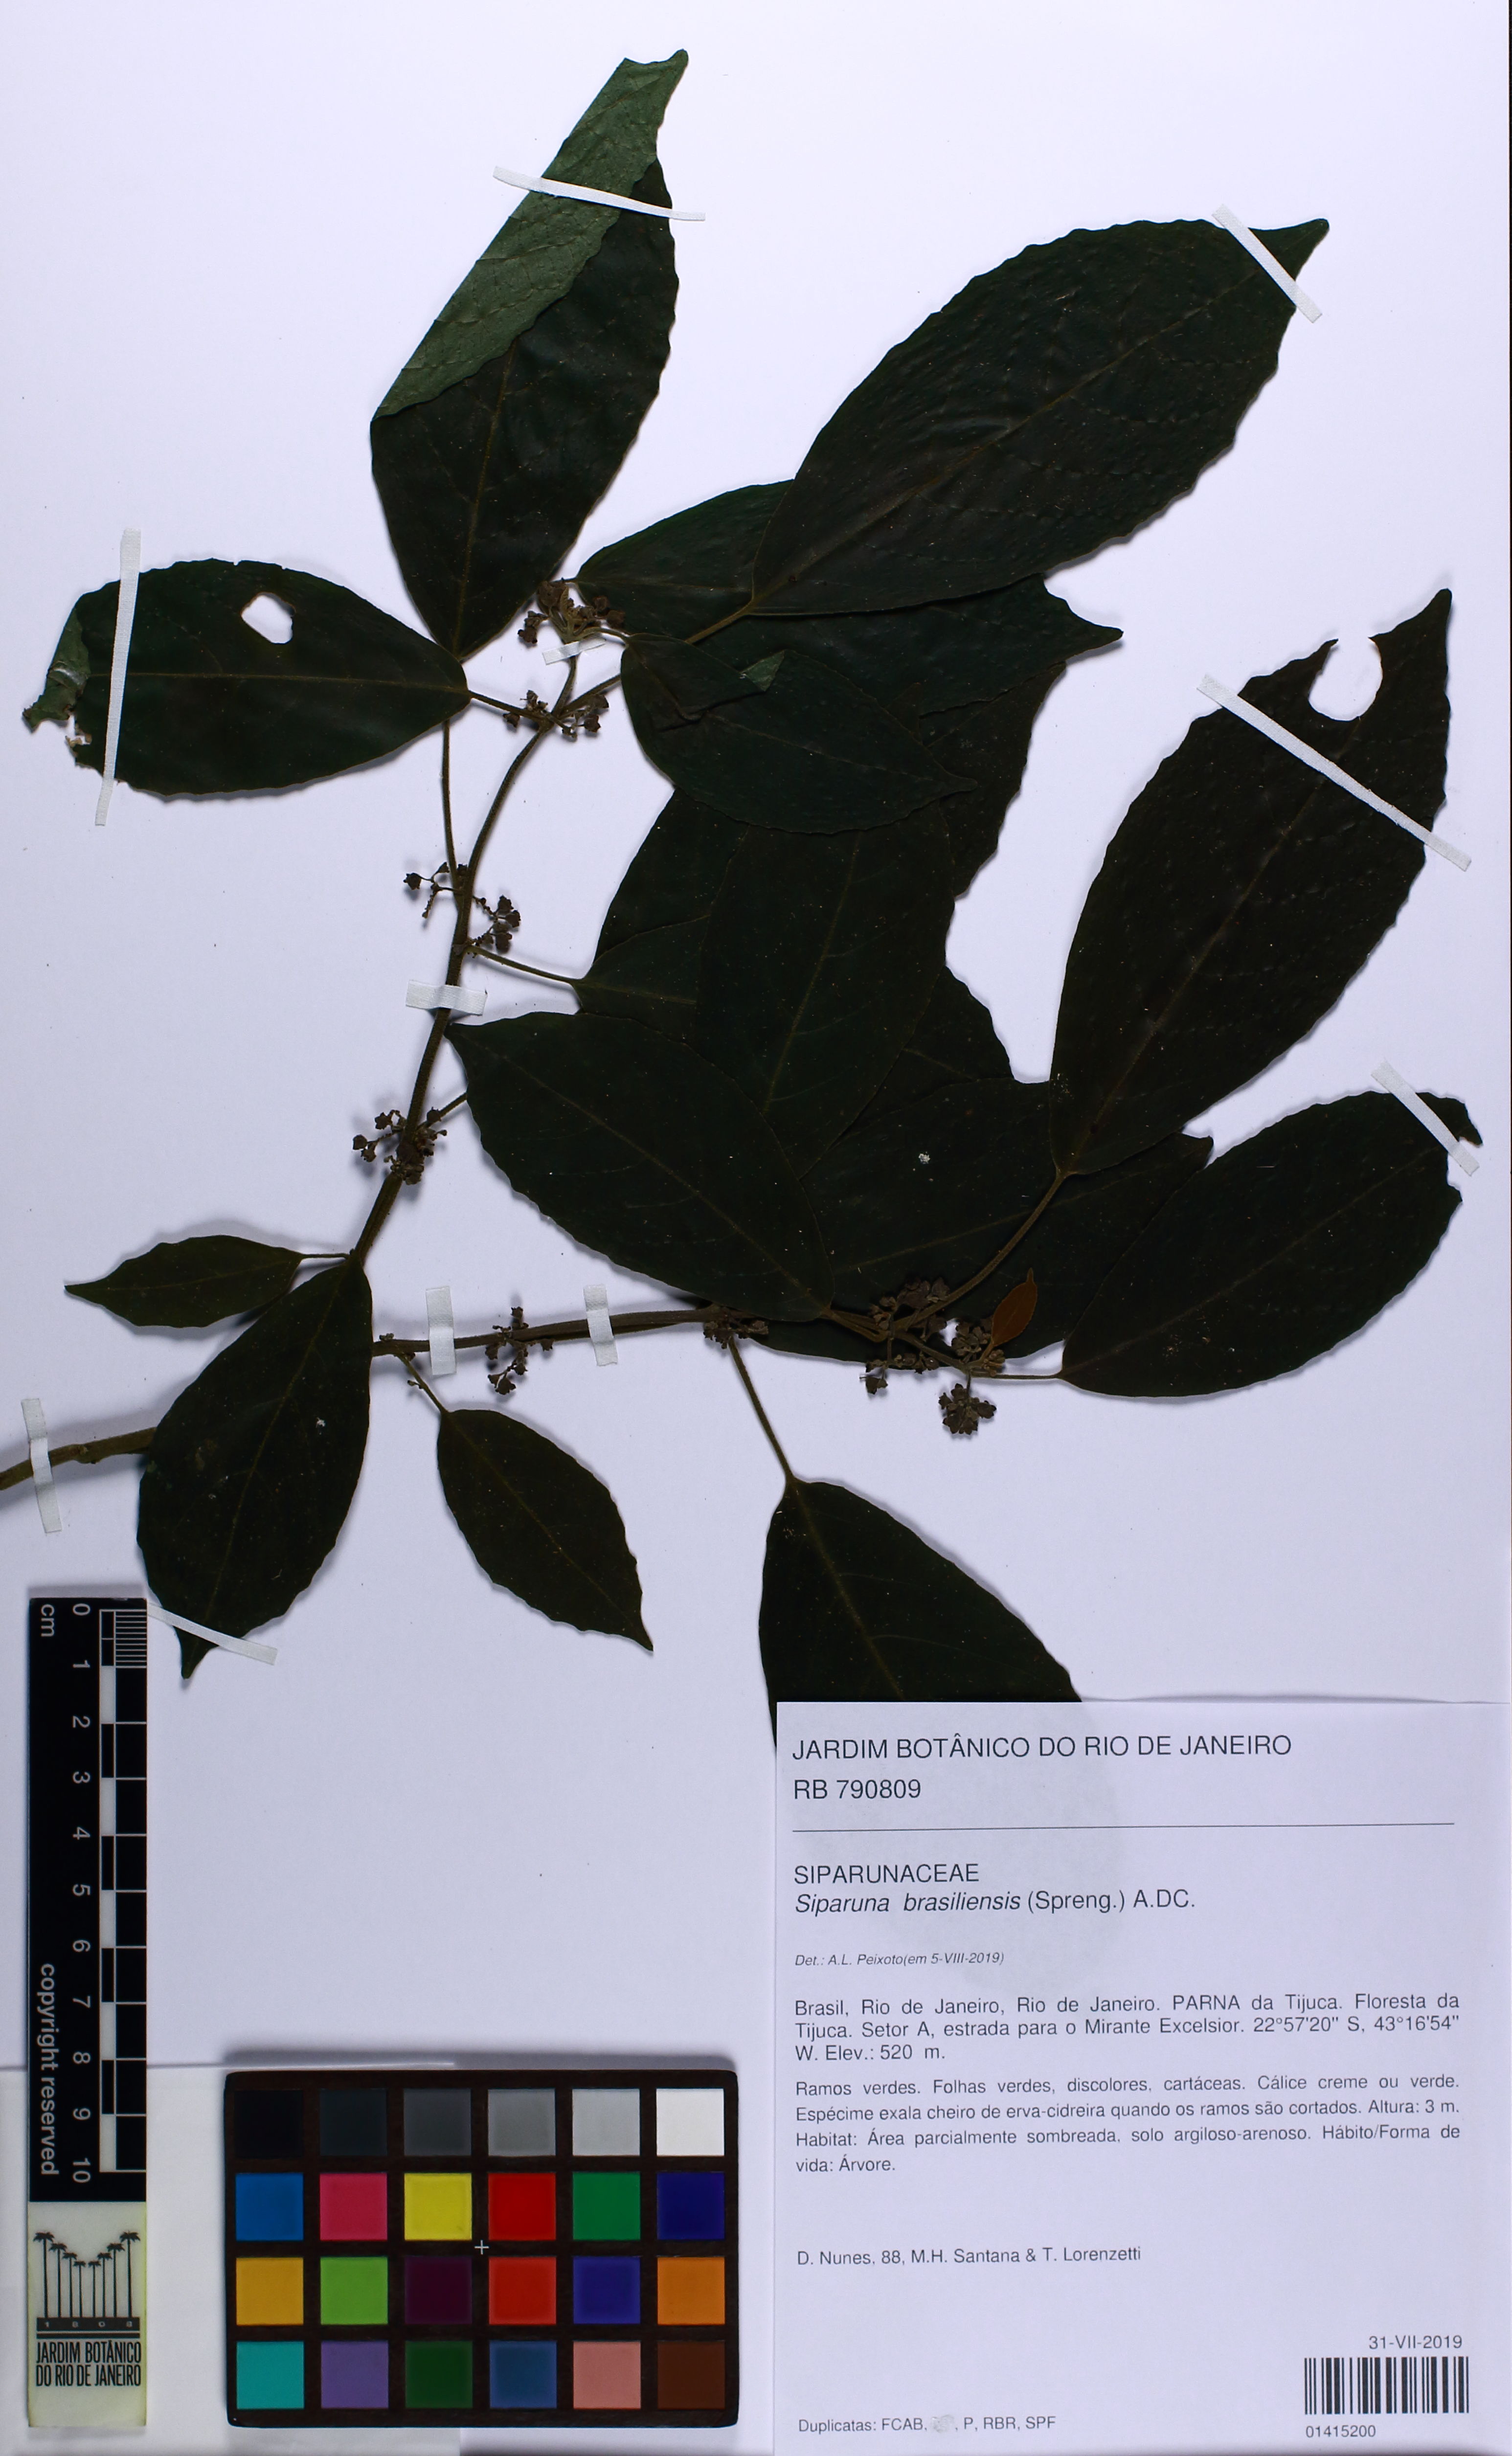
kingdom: Plantae
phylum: Tracheophyta
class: Magnoliopsida
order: Laurales
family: Siparunaceae
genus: Siparuna
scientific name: Siparuna brasiliensis
